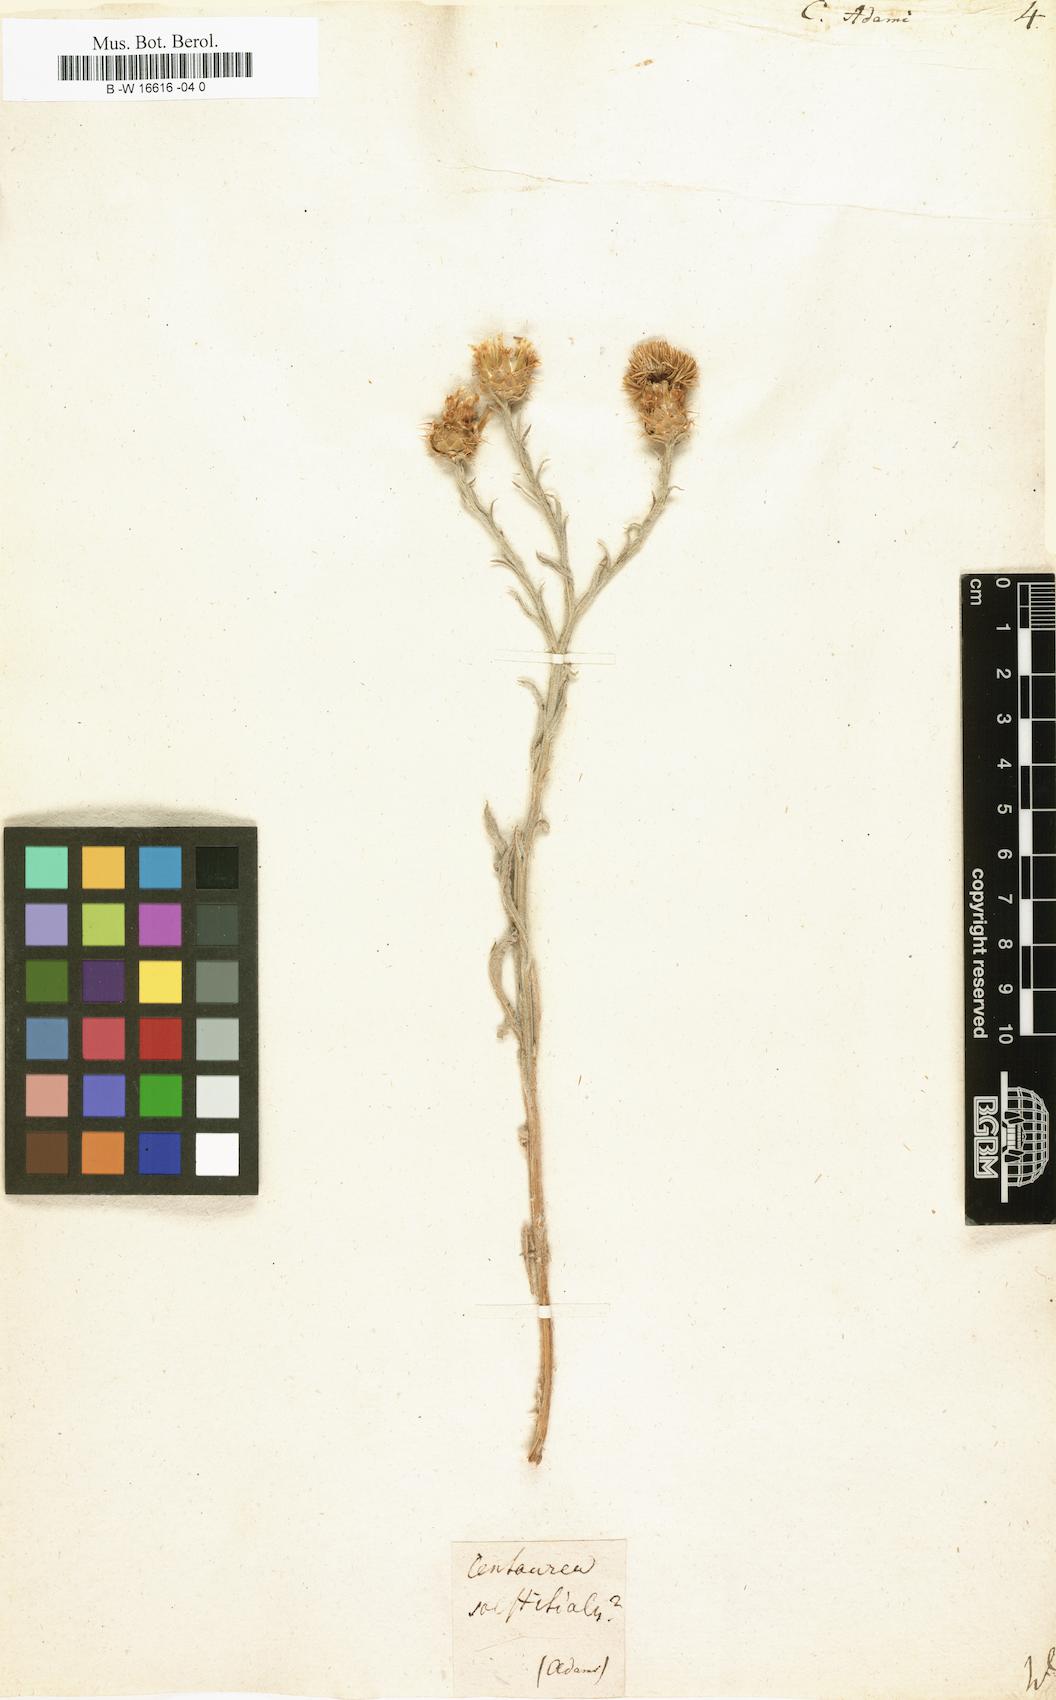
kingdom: Plantae
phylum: Tracheophyta
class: Magnoliopsida
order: Asterales
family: Asteraceae
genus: Centaurea
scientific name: Centaurea adami
